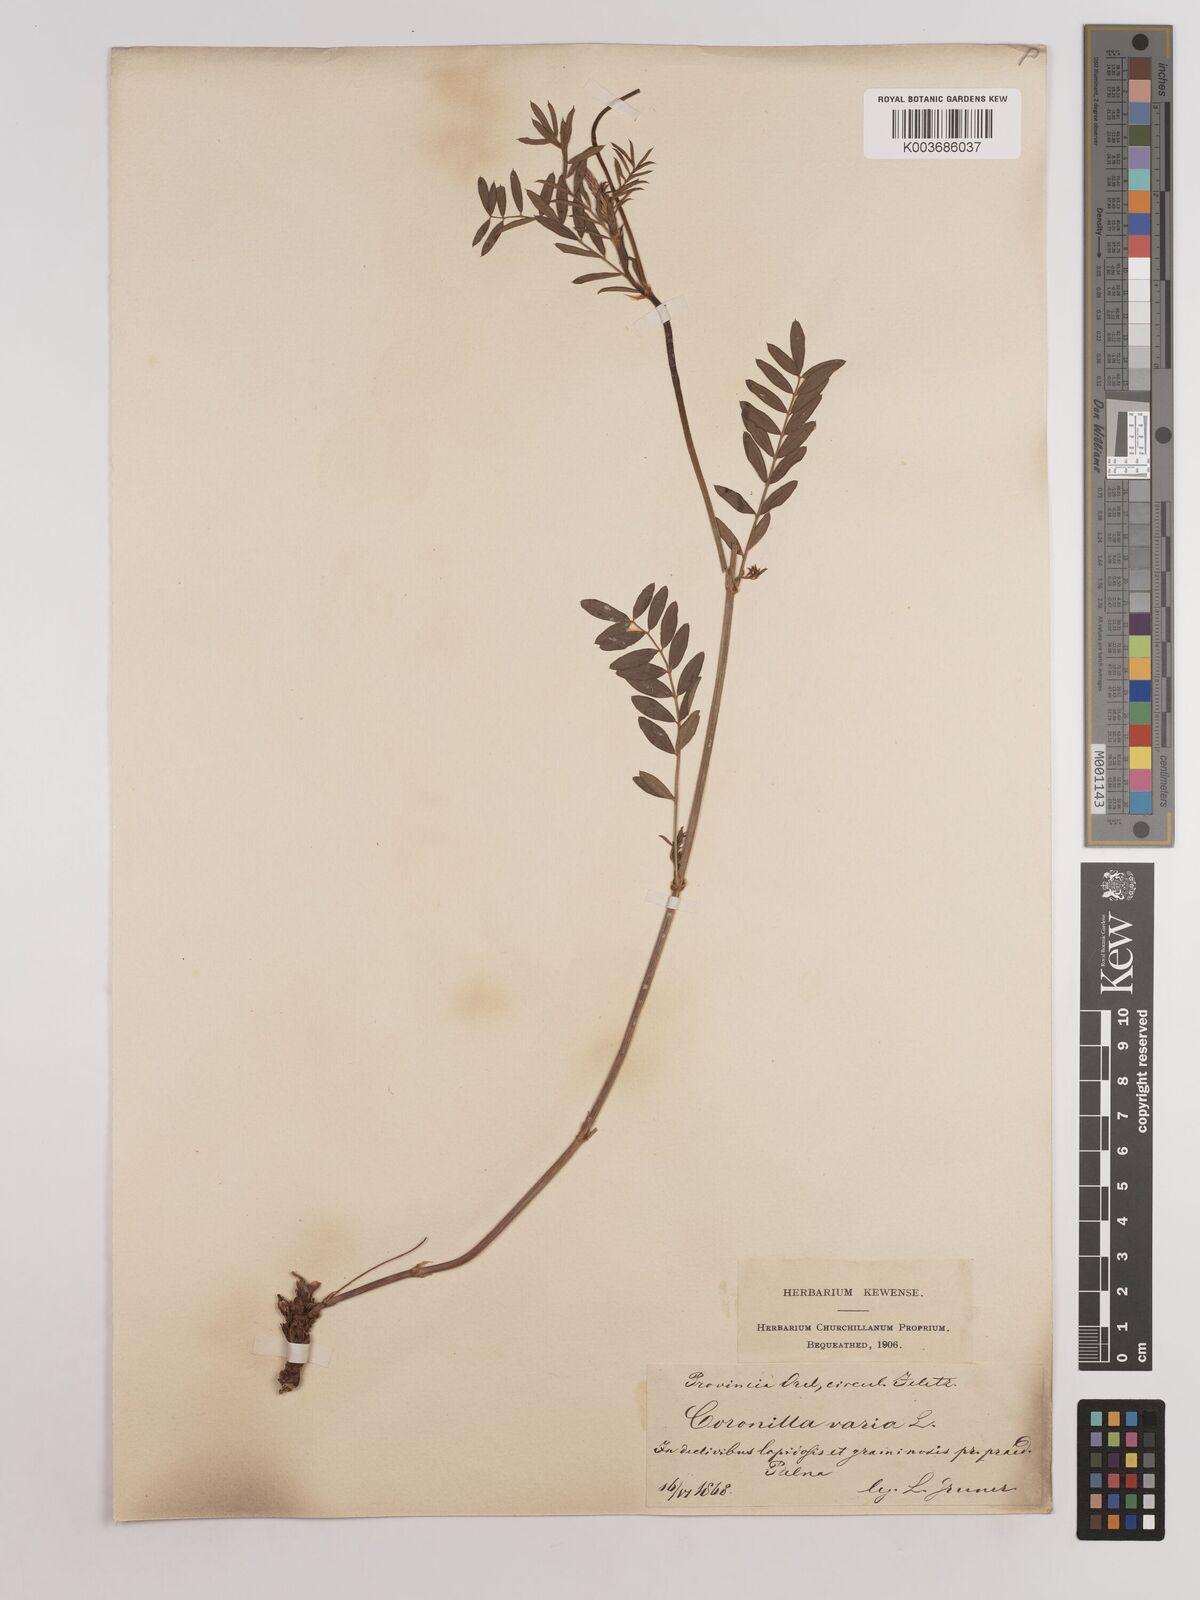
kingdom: Plantae
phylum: Tracheophyta
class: Magnoliopsida
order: Fabales
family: Fabaceae
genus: Coronilla
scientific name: Coronilla varia
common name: Crownvetch
